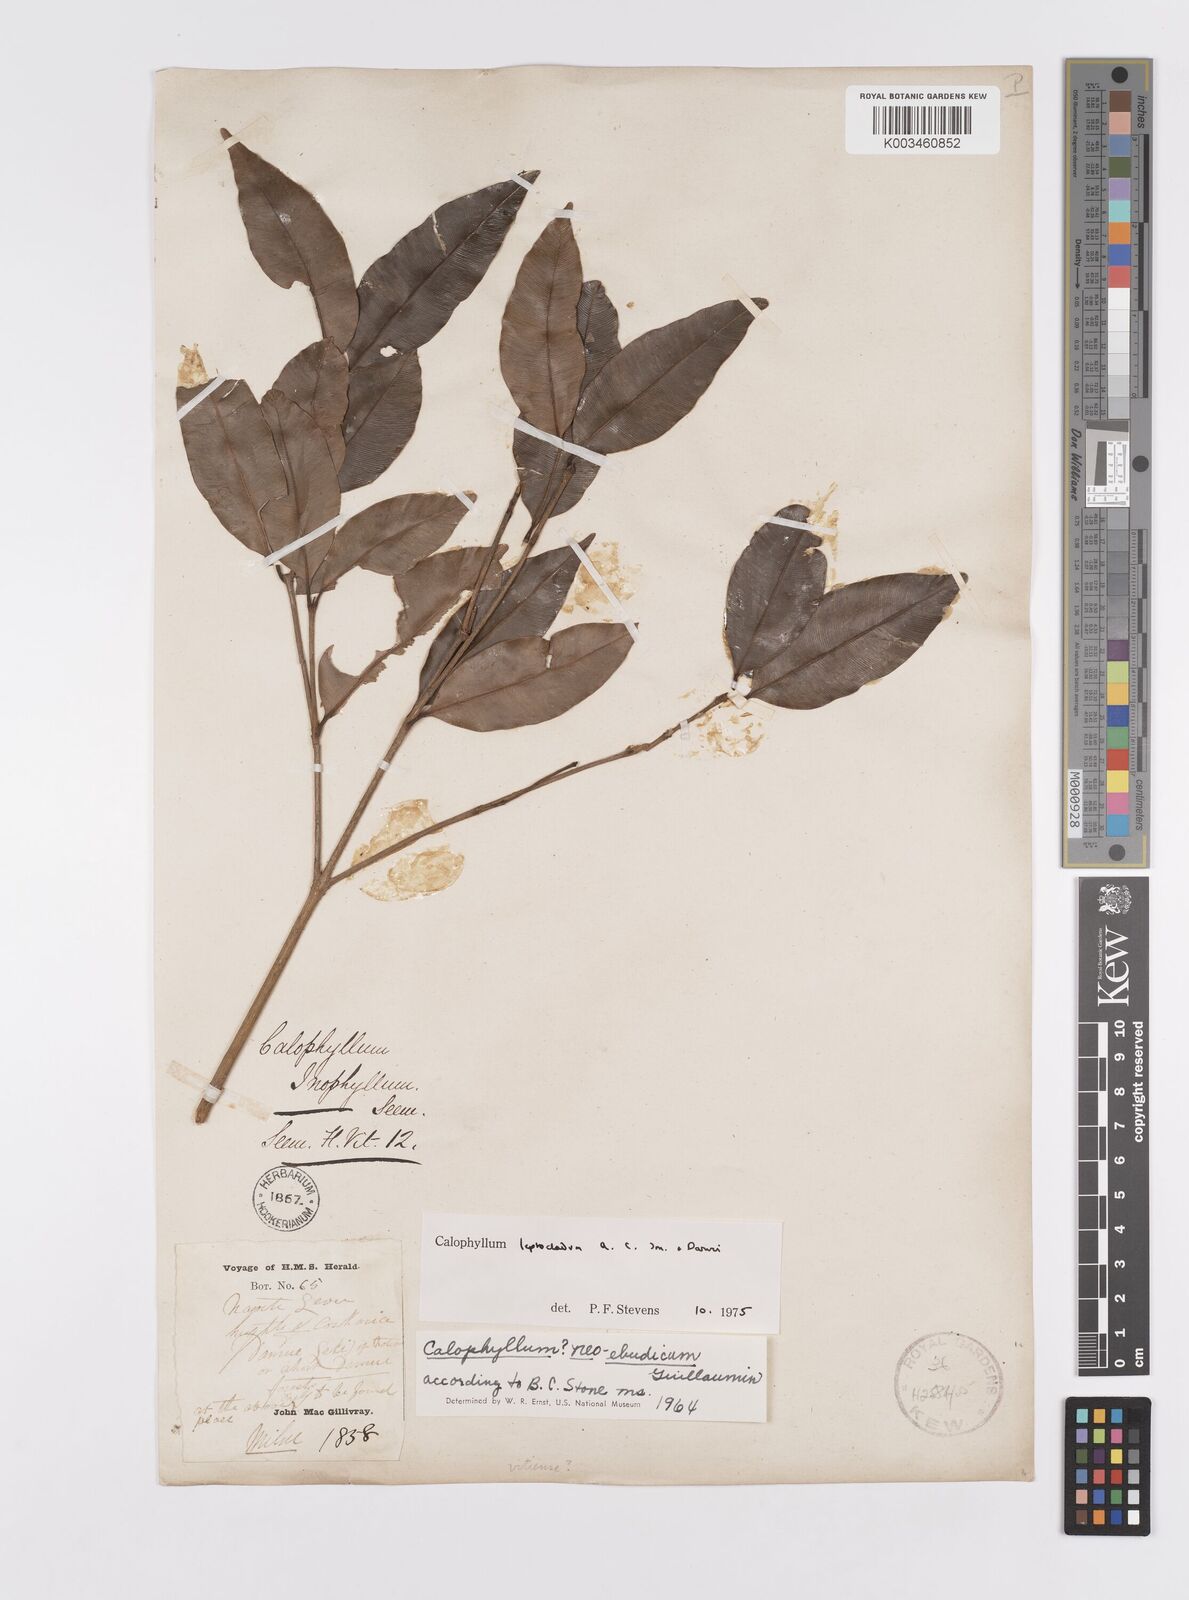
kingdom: Plantae
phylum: Tracheophyta
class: Magnoliopsida
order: Malpighiales
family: Calophyllaceae
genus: Calophyllum
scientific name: Calophyllum leptocladum
